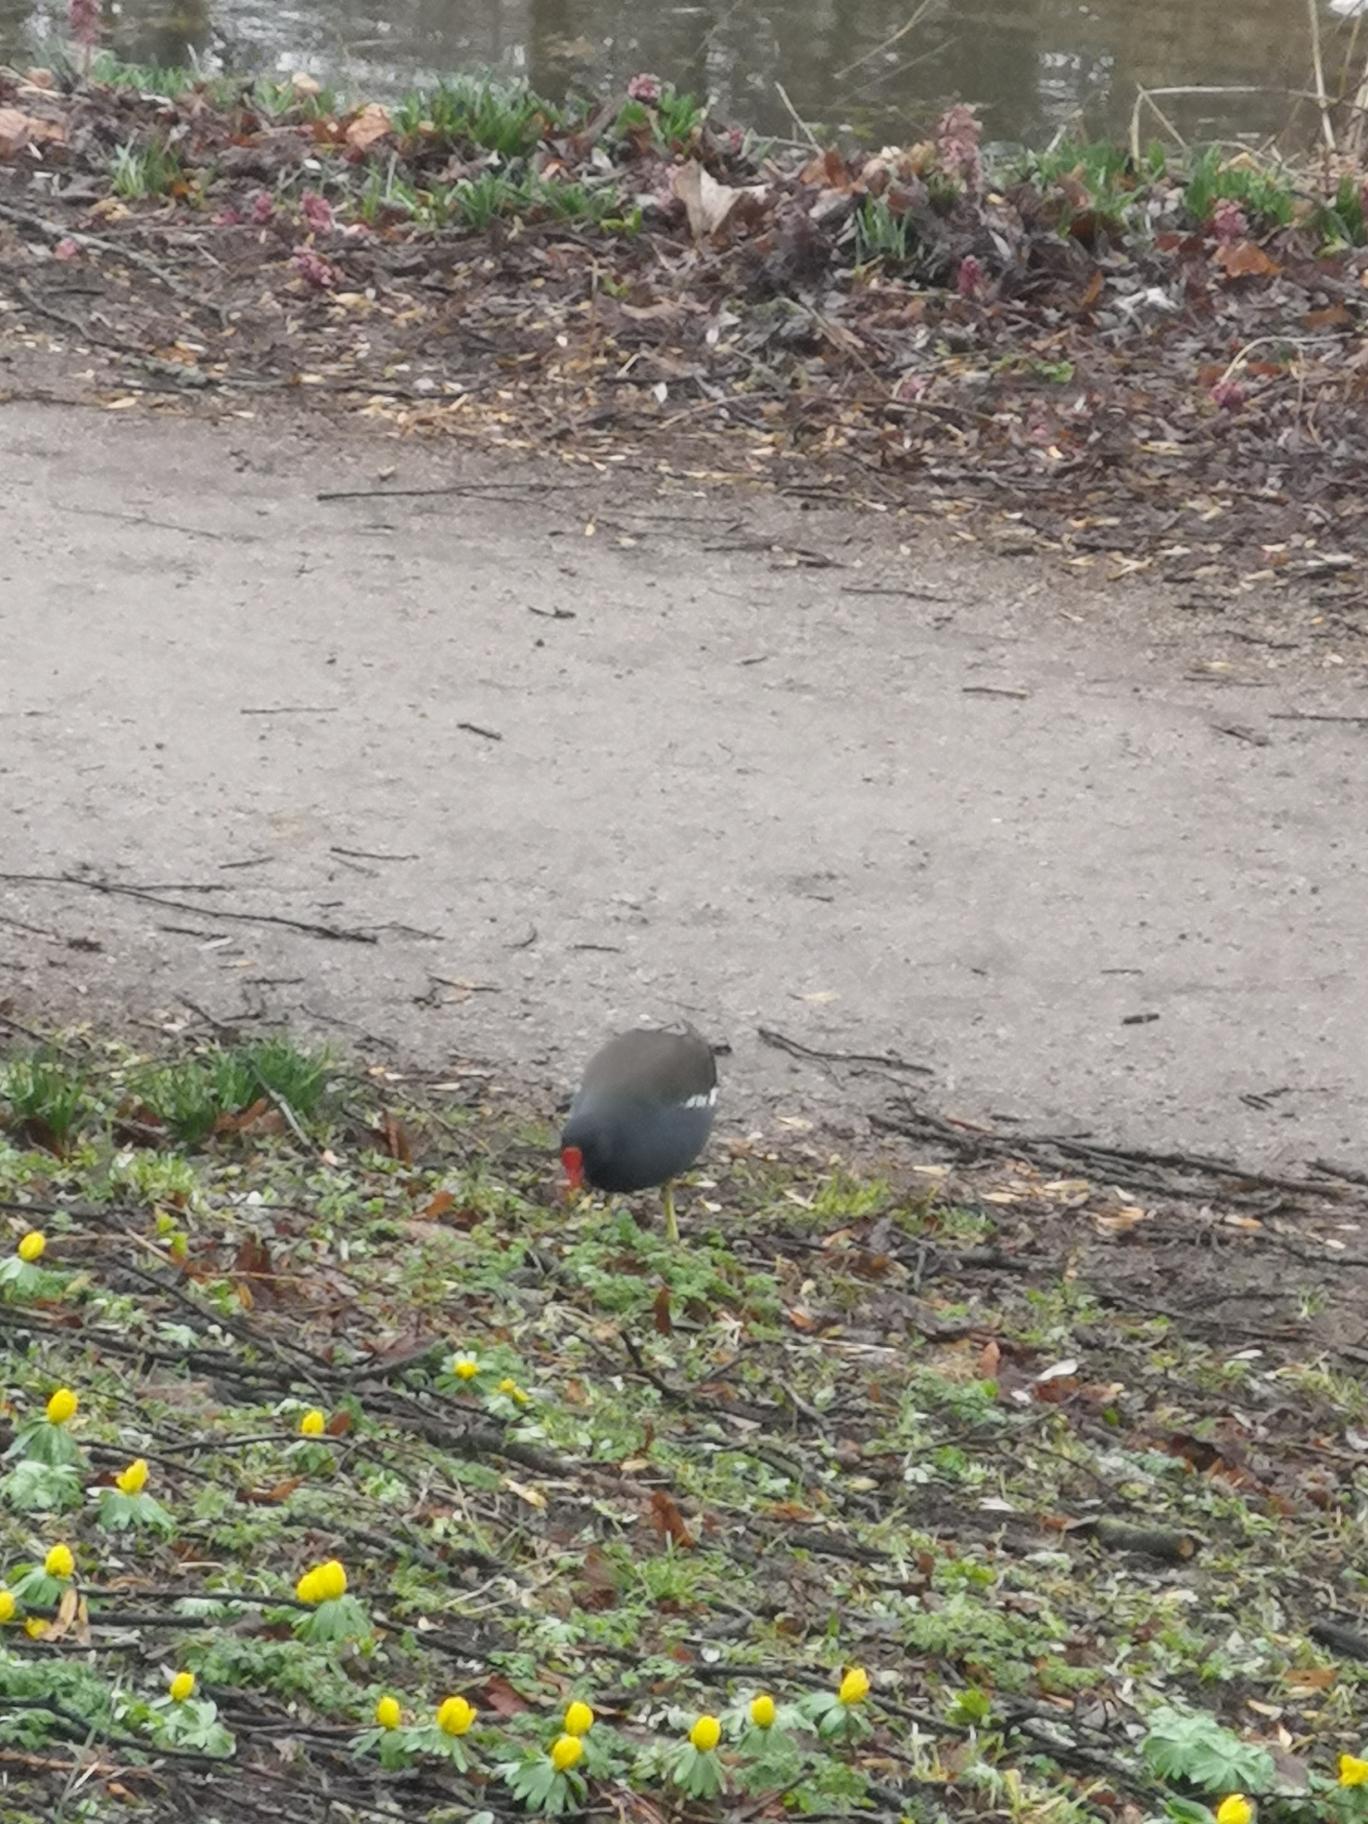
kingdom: Animalia
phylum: Chordata
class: Aves
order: Gruiformes
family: Rallidae
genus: Gallinula
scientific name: Gallinula chloropus
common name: Grønbenet rørhøne
